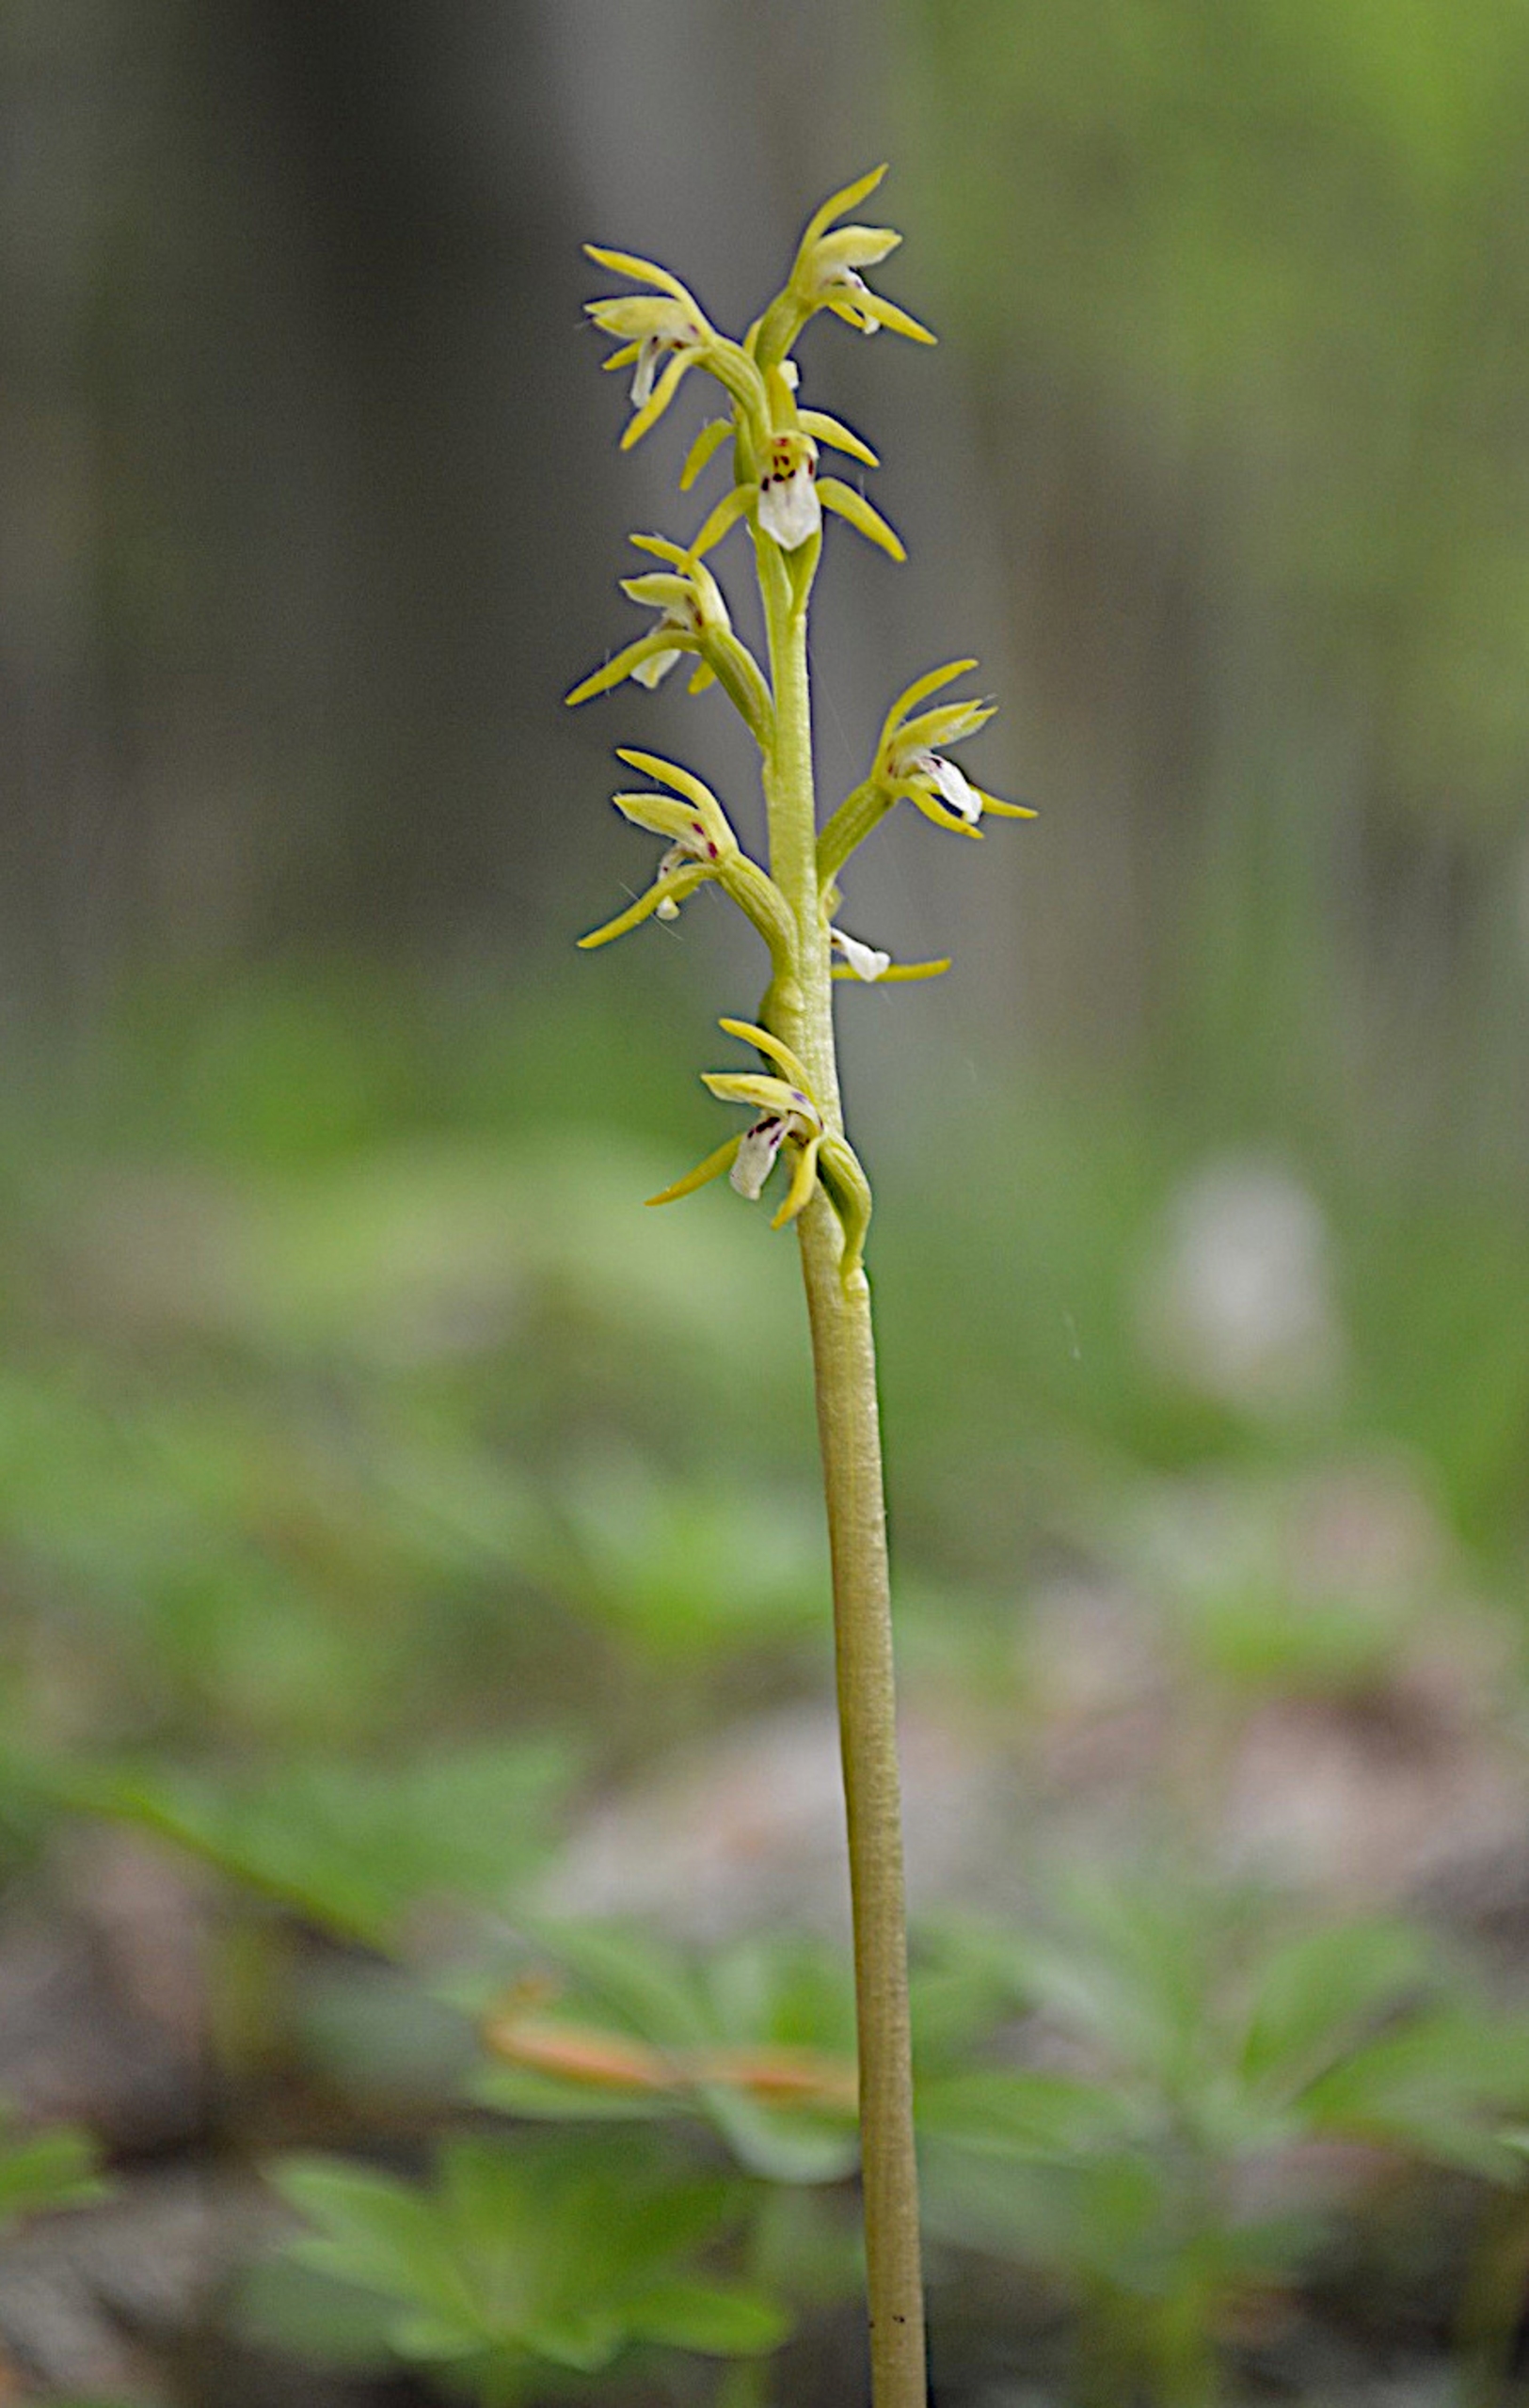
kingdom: Plantae
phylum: Tracheophyta
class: Liliopsida
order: Asparagales
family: Orchidaceae
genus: Corallorhiza
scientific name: Corallorhiza trifida
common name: Koralrod
